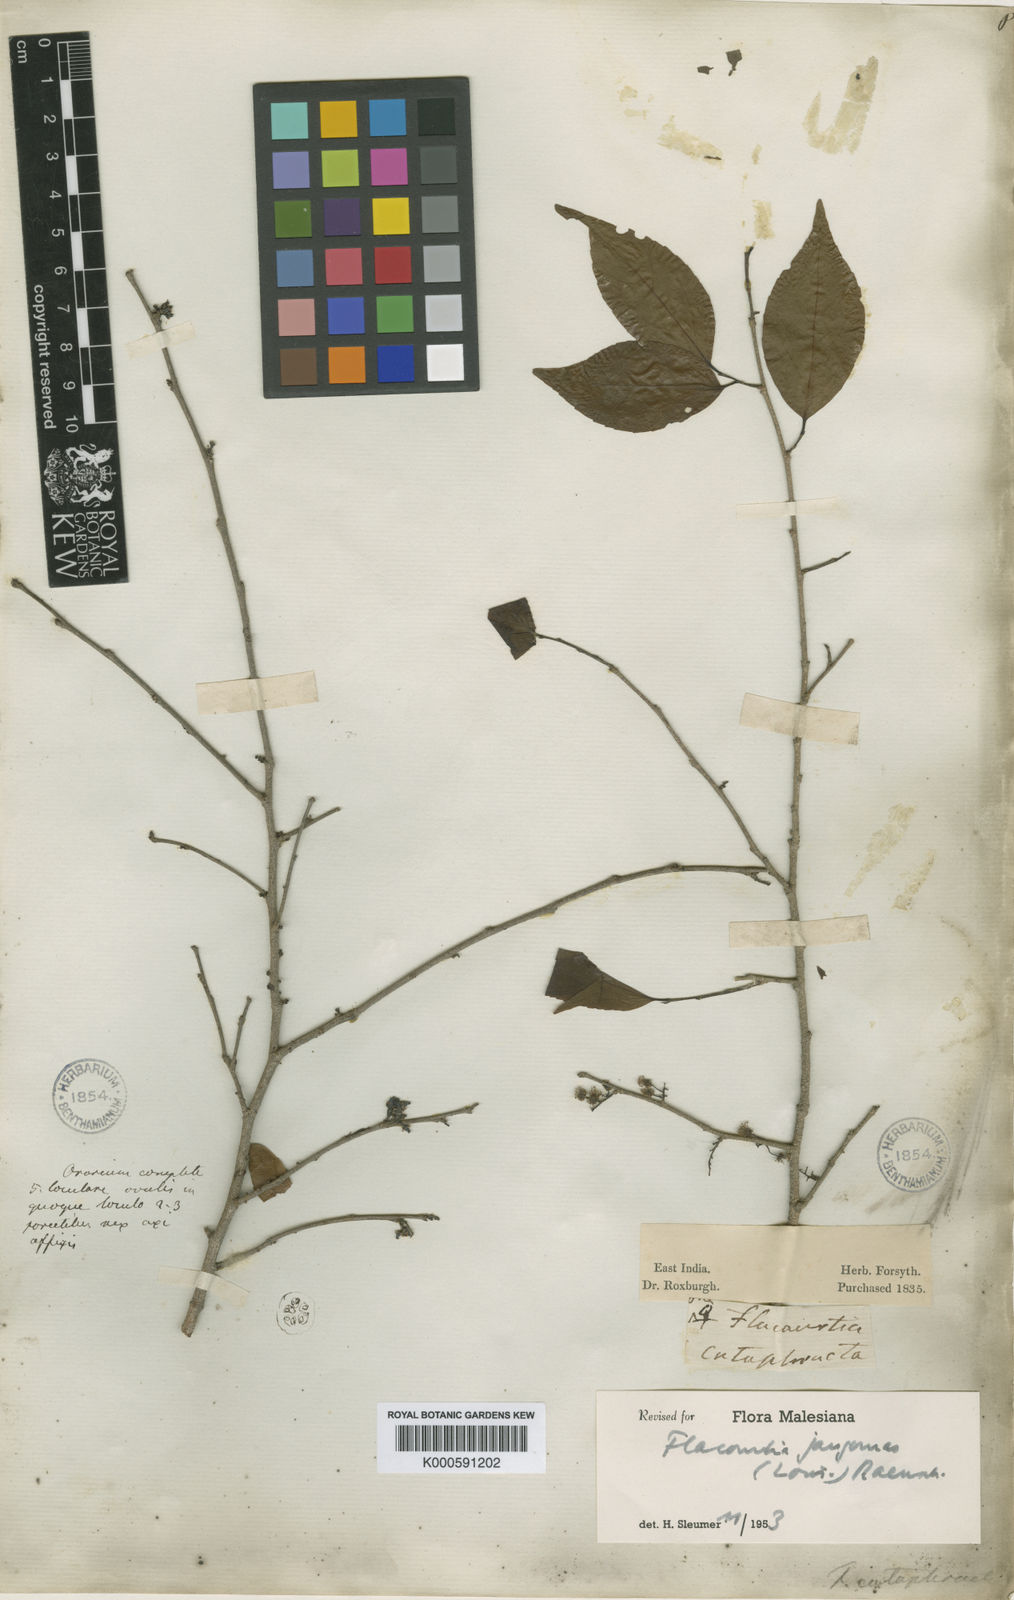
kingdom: Plantae
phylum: Tracheophyta
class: Magnoliopsida
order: Malpighiales
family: Salicaceae
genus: Flacourtia
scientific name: Flacourtia jangomas
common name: Indian-plum
